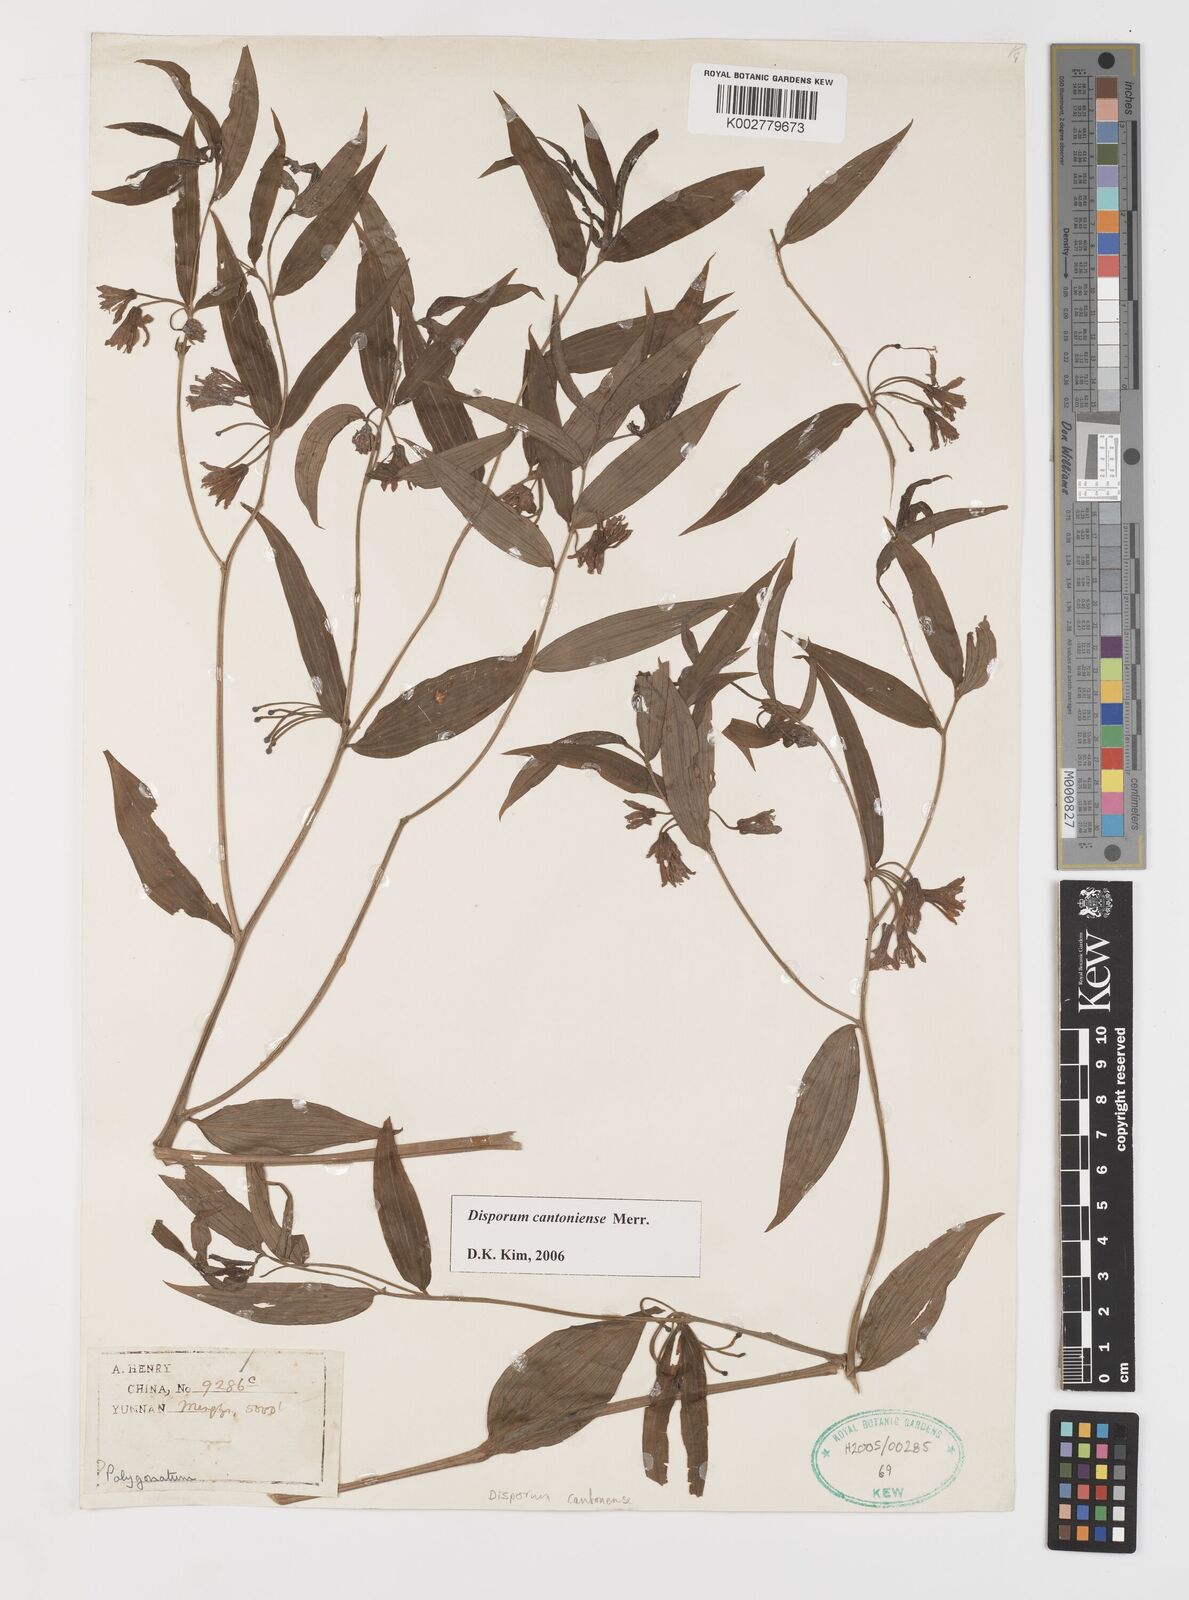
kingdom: Plantae
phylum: Tracheophyta
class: Liliopsida
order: Liliales
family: Colchicaceae
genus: Disporum
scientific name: Disporum cantoniense
